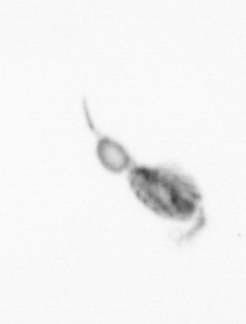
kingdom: Animalia
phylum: Arthropoda
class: Copepoda
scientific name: Copepoda
